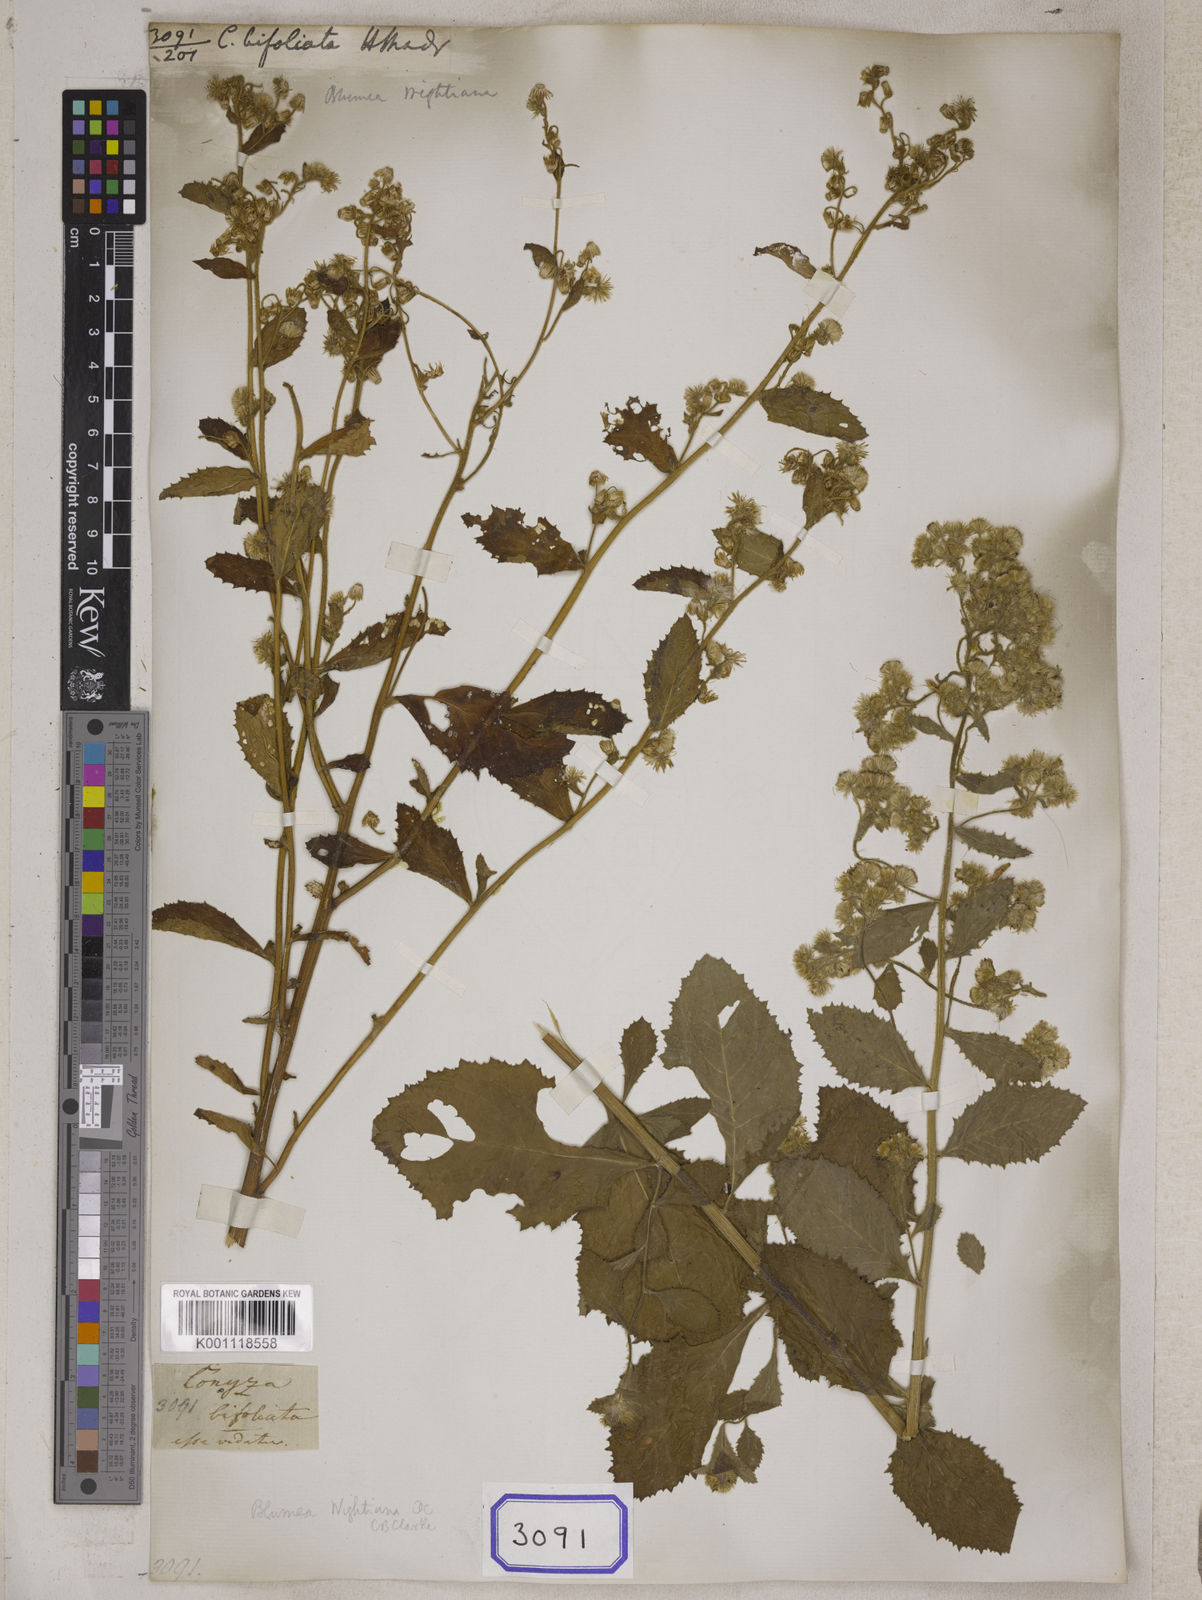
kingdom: Plantae
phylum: Tracheophyta
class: Magnoliopsida
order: Asterales
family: Asteraceae
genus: Blumea
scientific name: Blumea bifoliata
